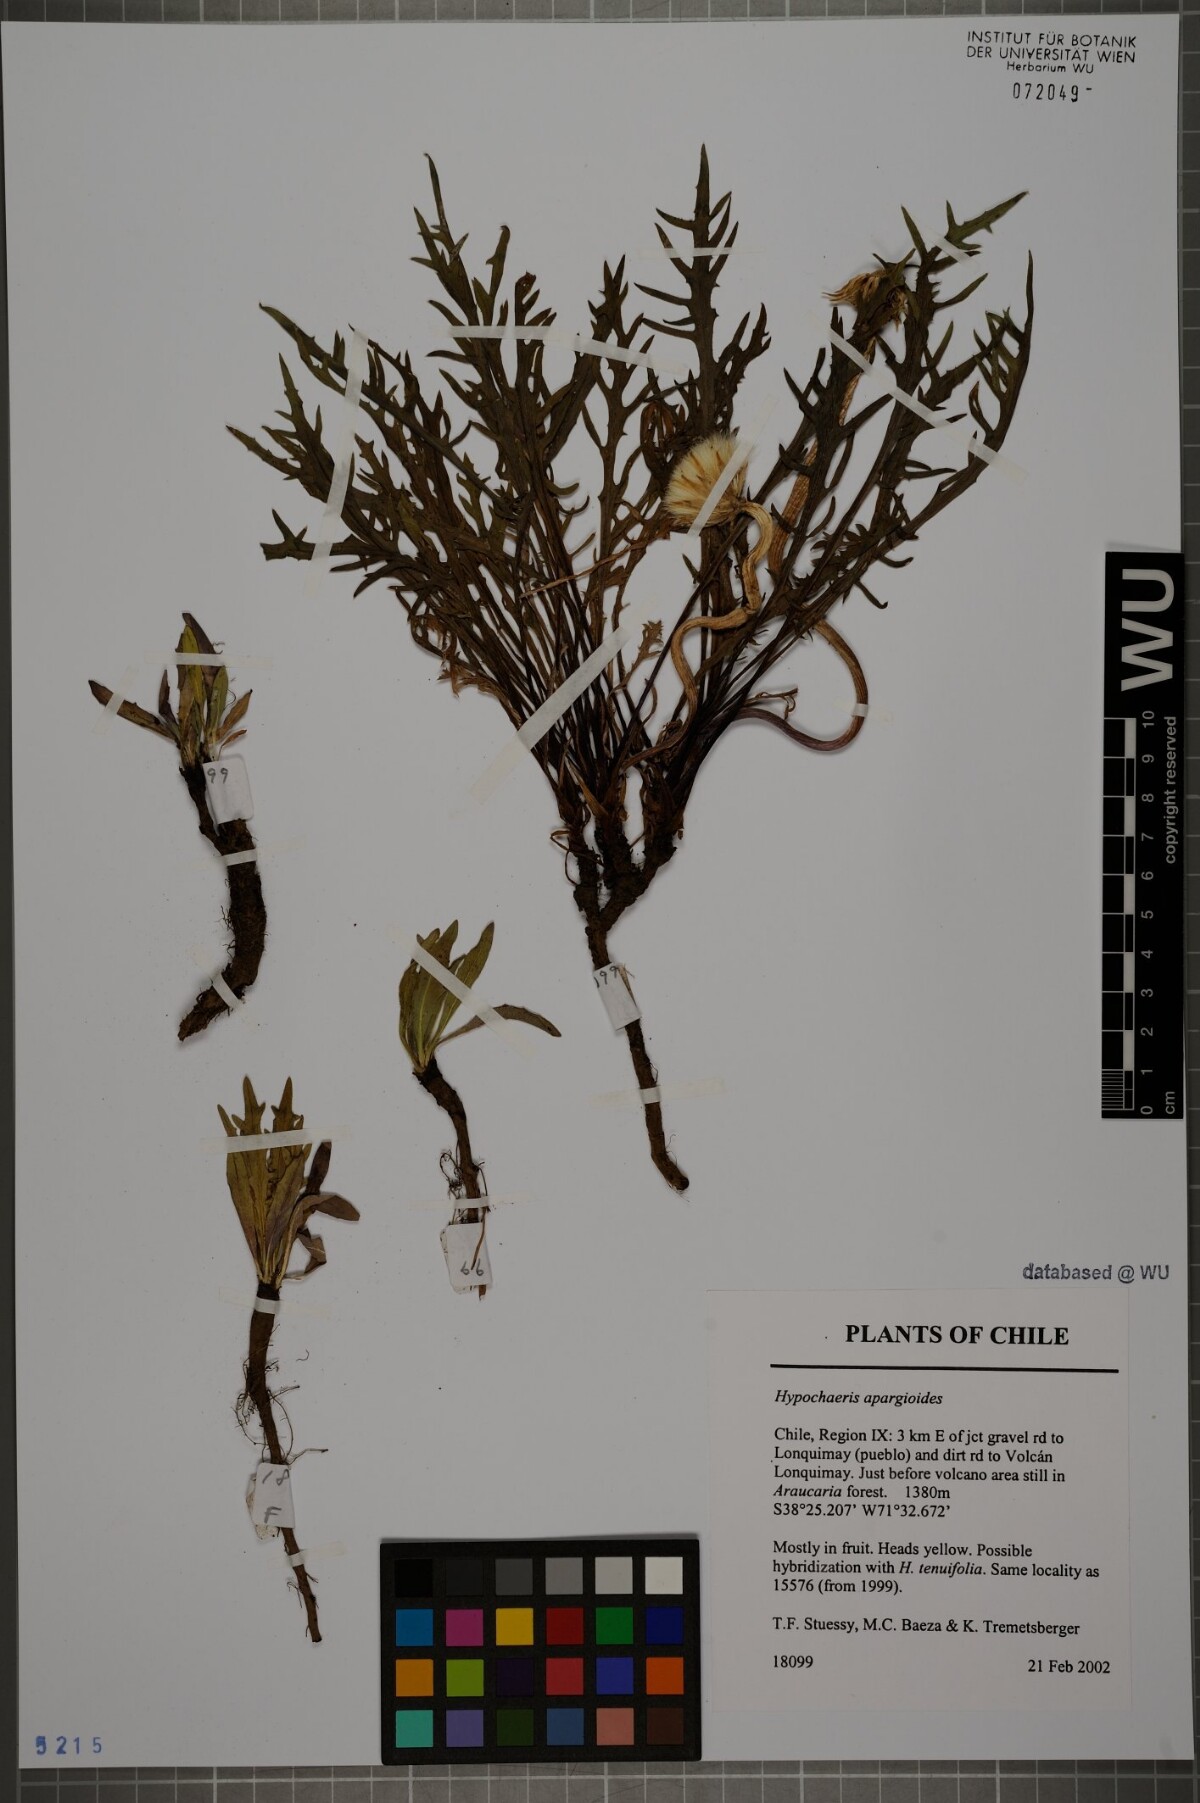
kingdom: Plantae
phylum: Tracheophyta
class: Magnoliopsida
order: Asterales
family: Asteraceae
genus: Hypochaeris
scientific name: Hypochaeris apargioides
